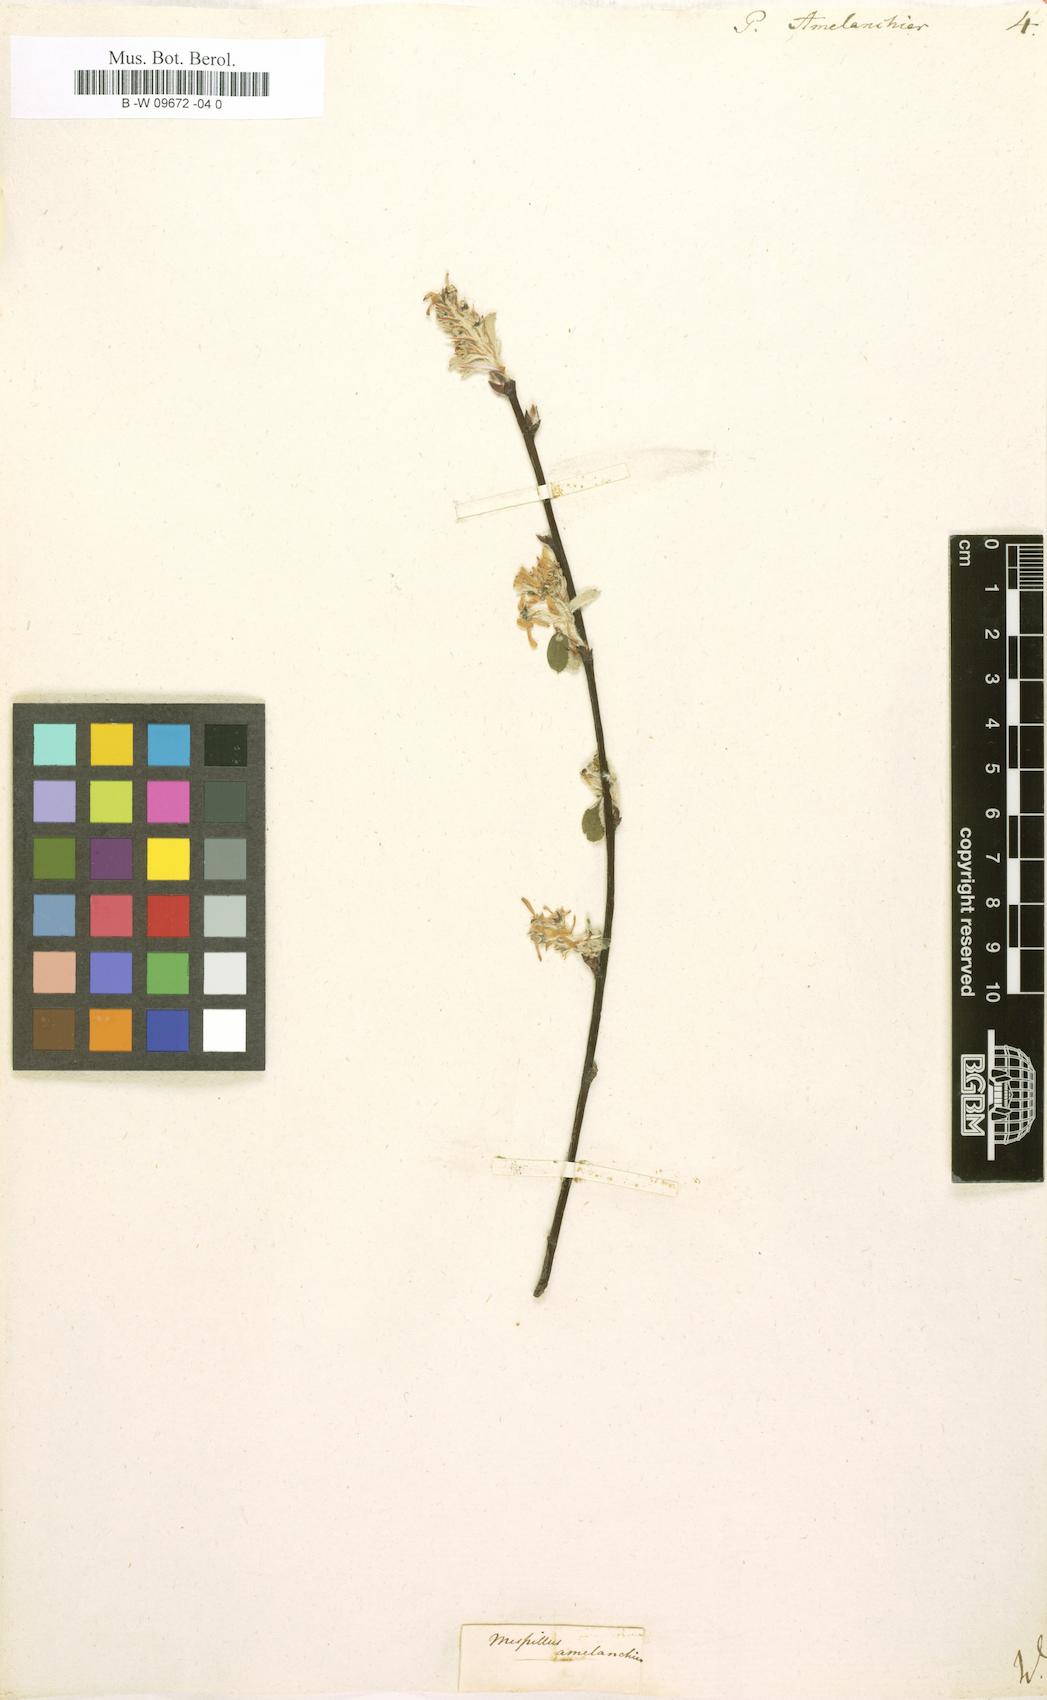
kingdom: Plantae
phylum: Tracheophyta
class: Magnoliopsida
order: Rosales
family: Rosaceae
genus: Pyrus
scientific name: Pyrus amelanchier
